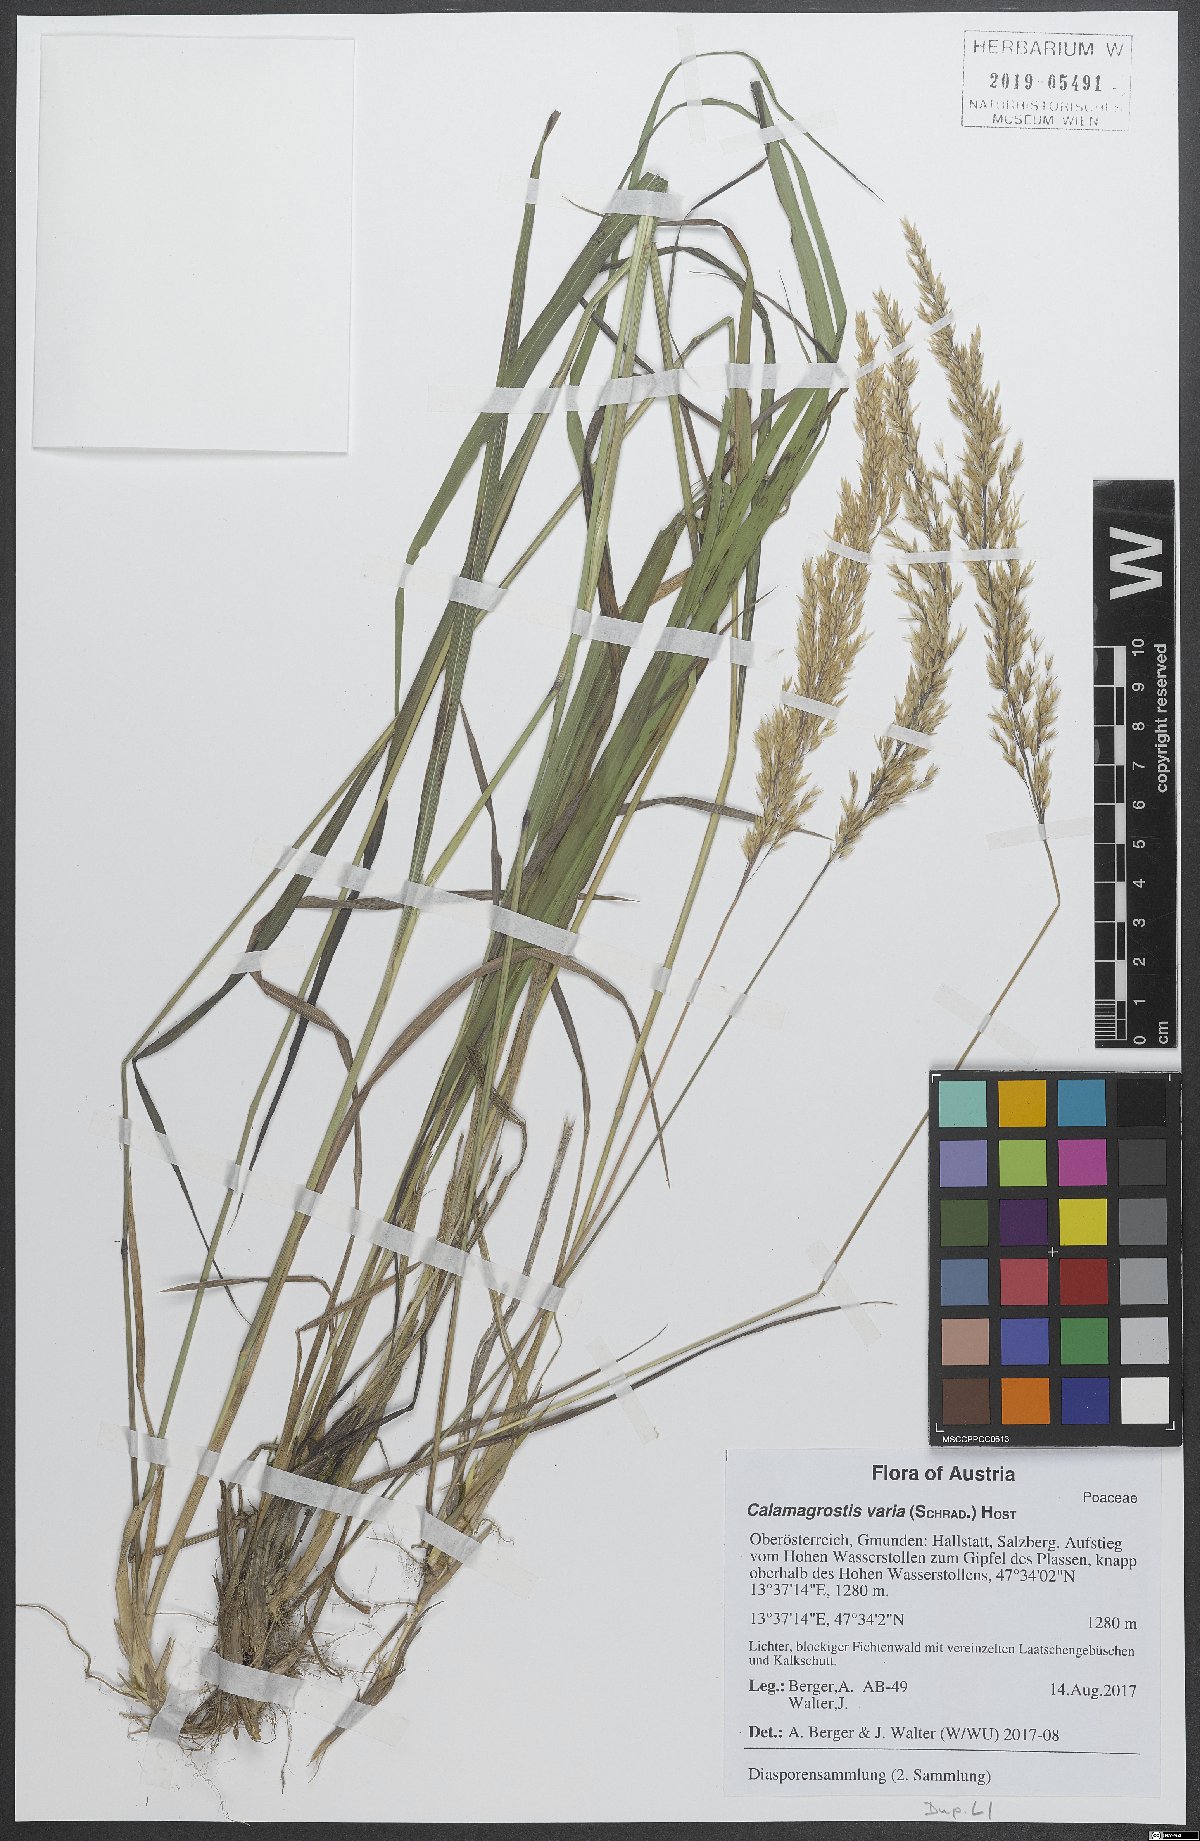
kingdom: Plantae
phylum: Tracheophyta
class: Liliopsida
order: Poales
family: Poaceae
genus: Calamagrostis
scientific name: Calamagrostis varia
